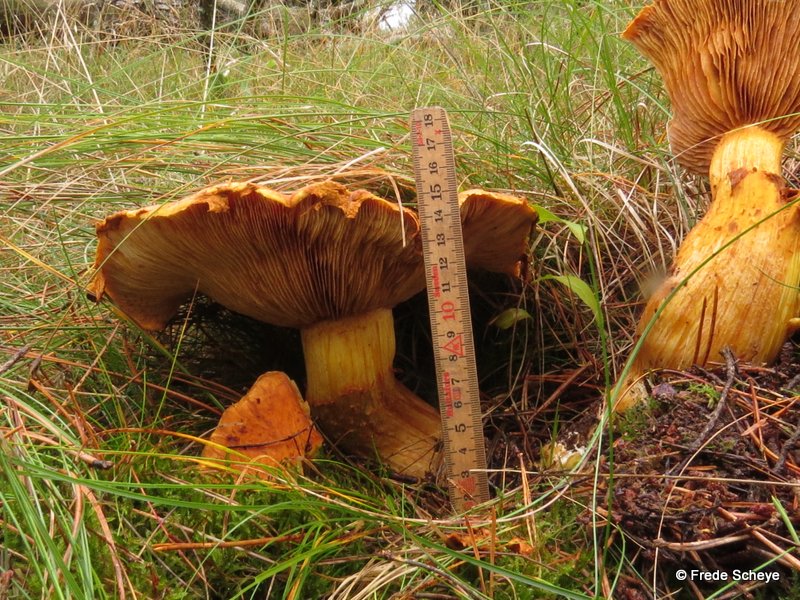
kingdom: Fungi
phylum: Basidiomycota
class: Agaricomycetes
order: Agaricales
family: Hymenogastraceae
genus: Gymnopilus
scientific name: Gymnopilus spectabilis
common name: fibret flammehat
